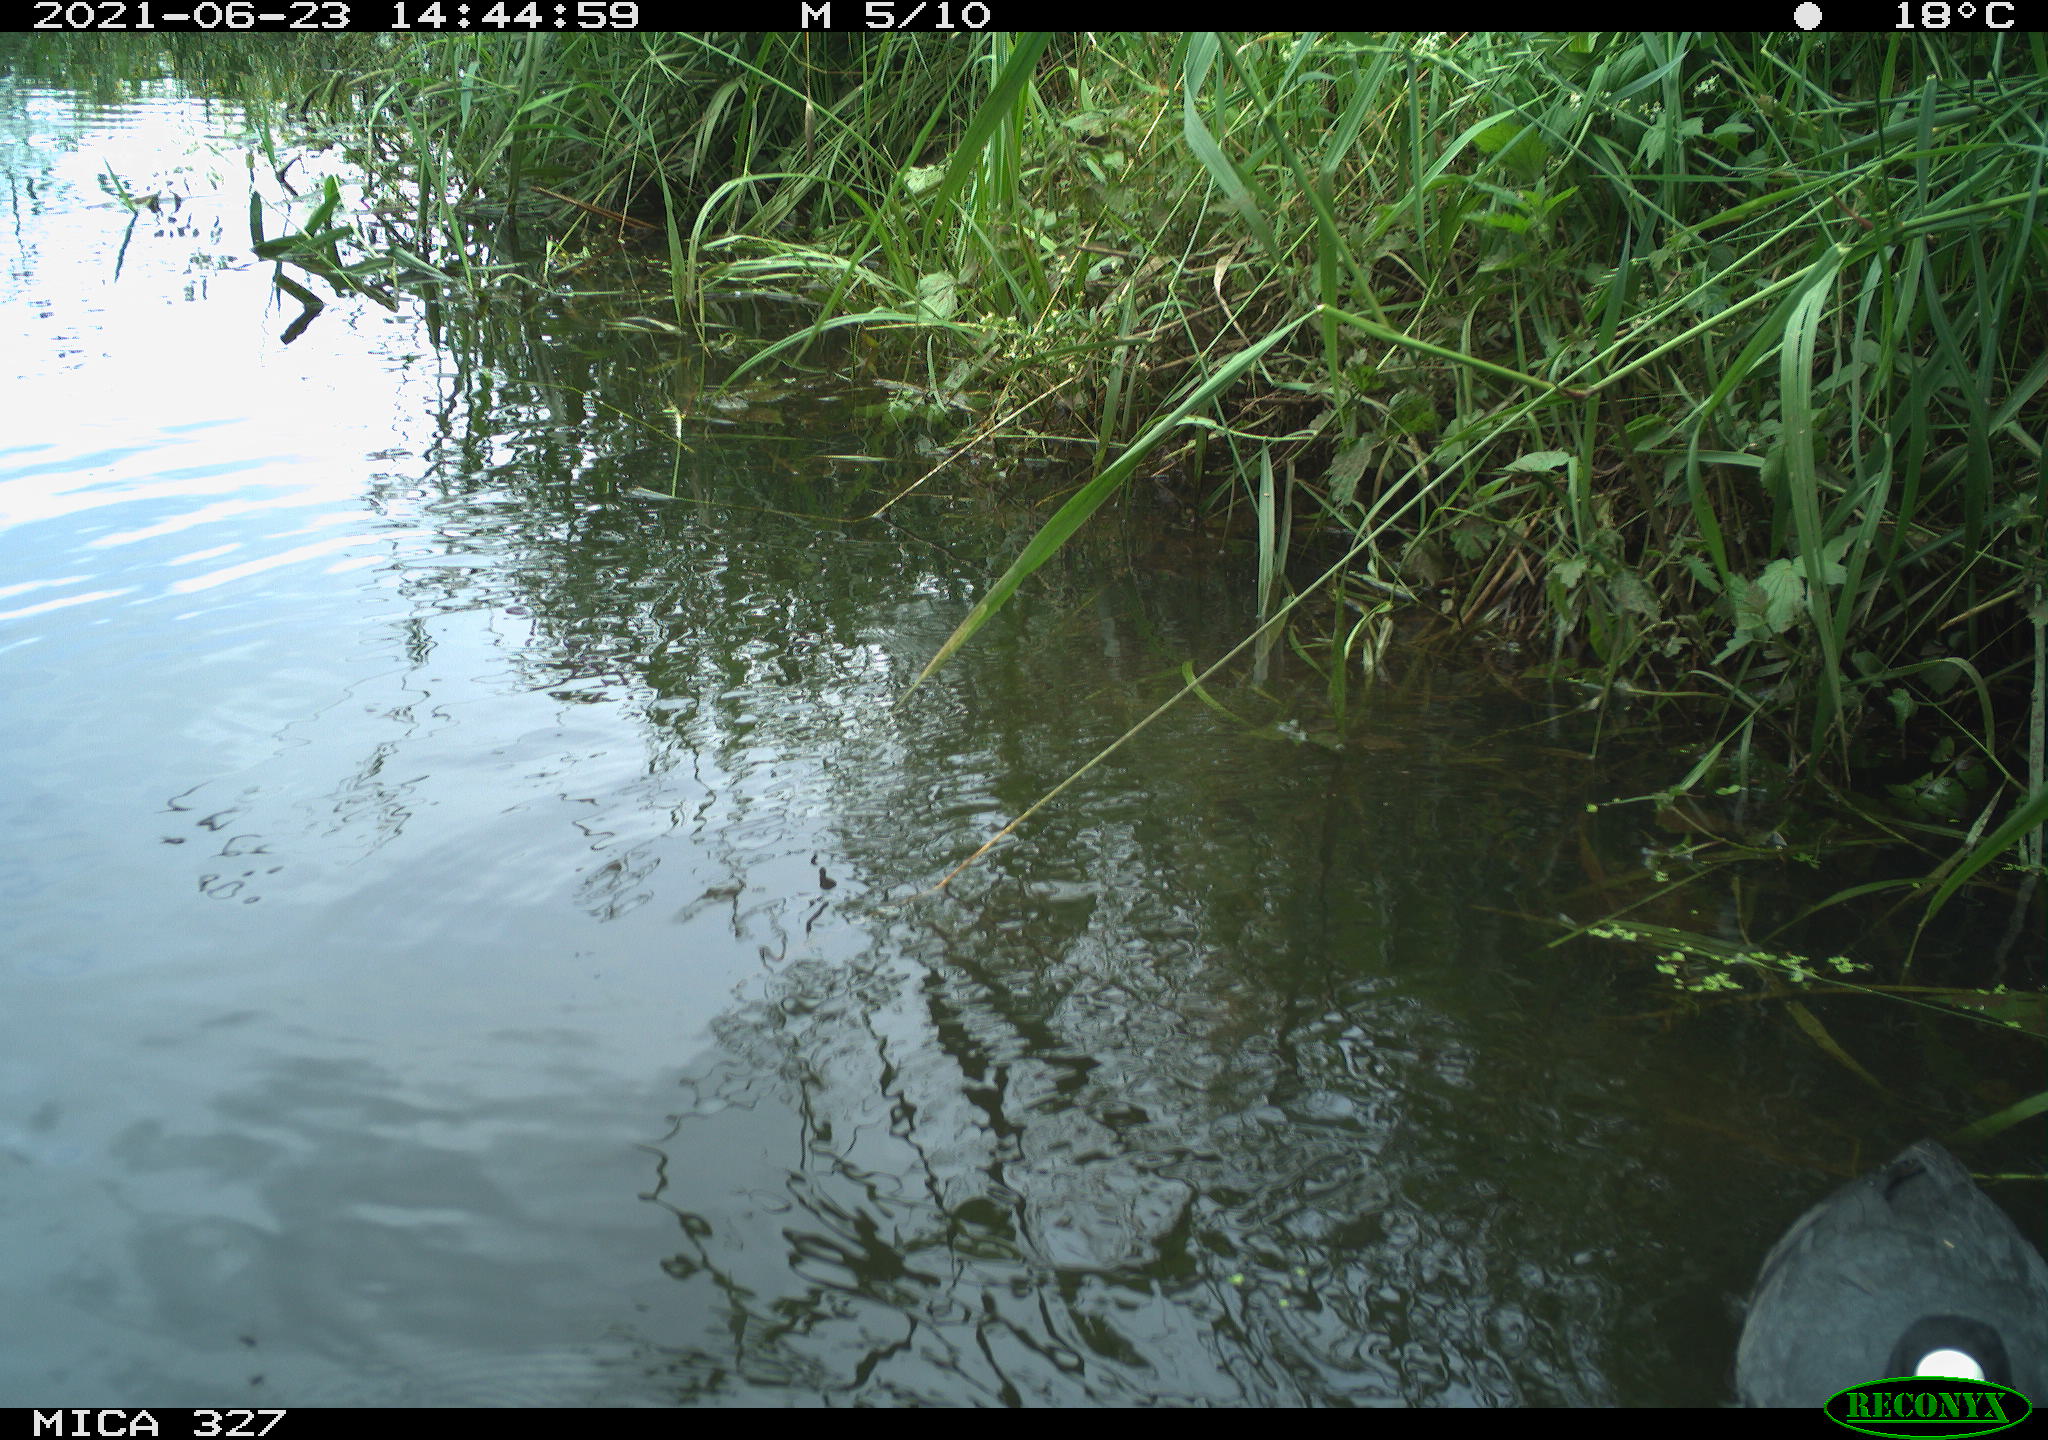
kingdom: Animalia
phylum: Chordata
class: Aves
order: Gruiformes
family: Rallidae
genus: Fulica
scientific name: Fulica atra
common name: Eurasian coot
